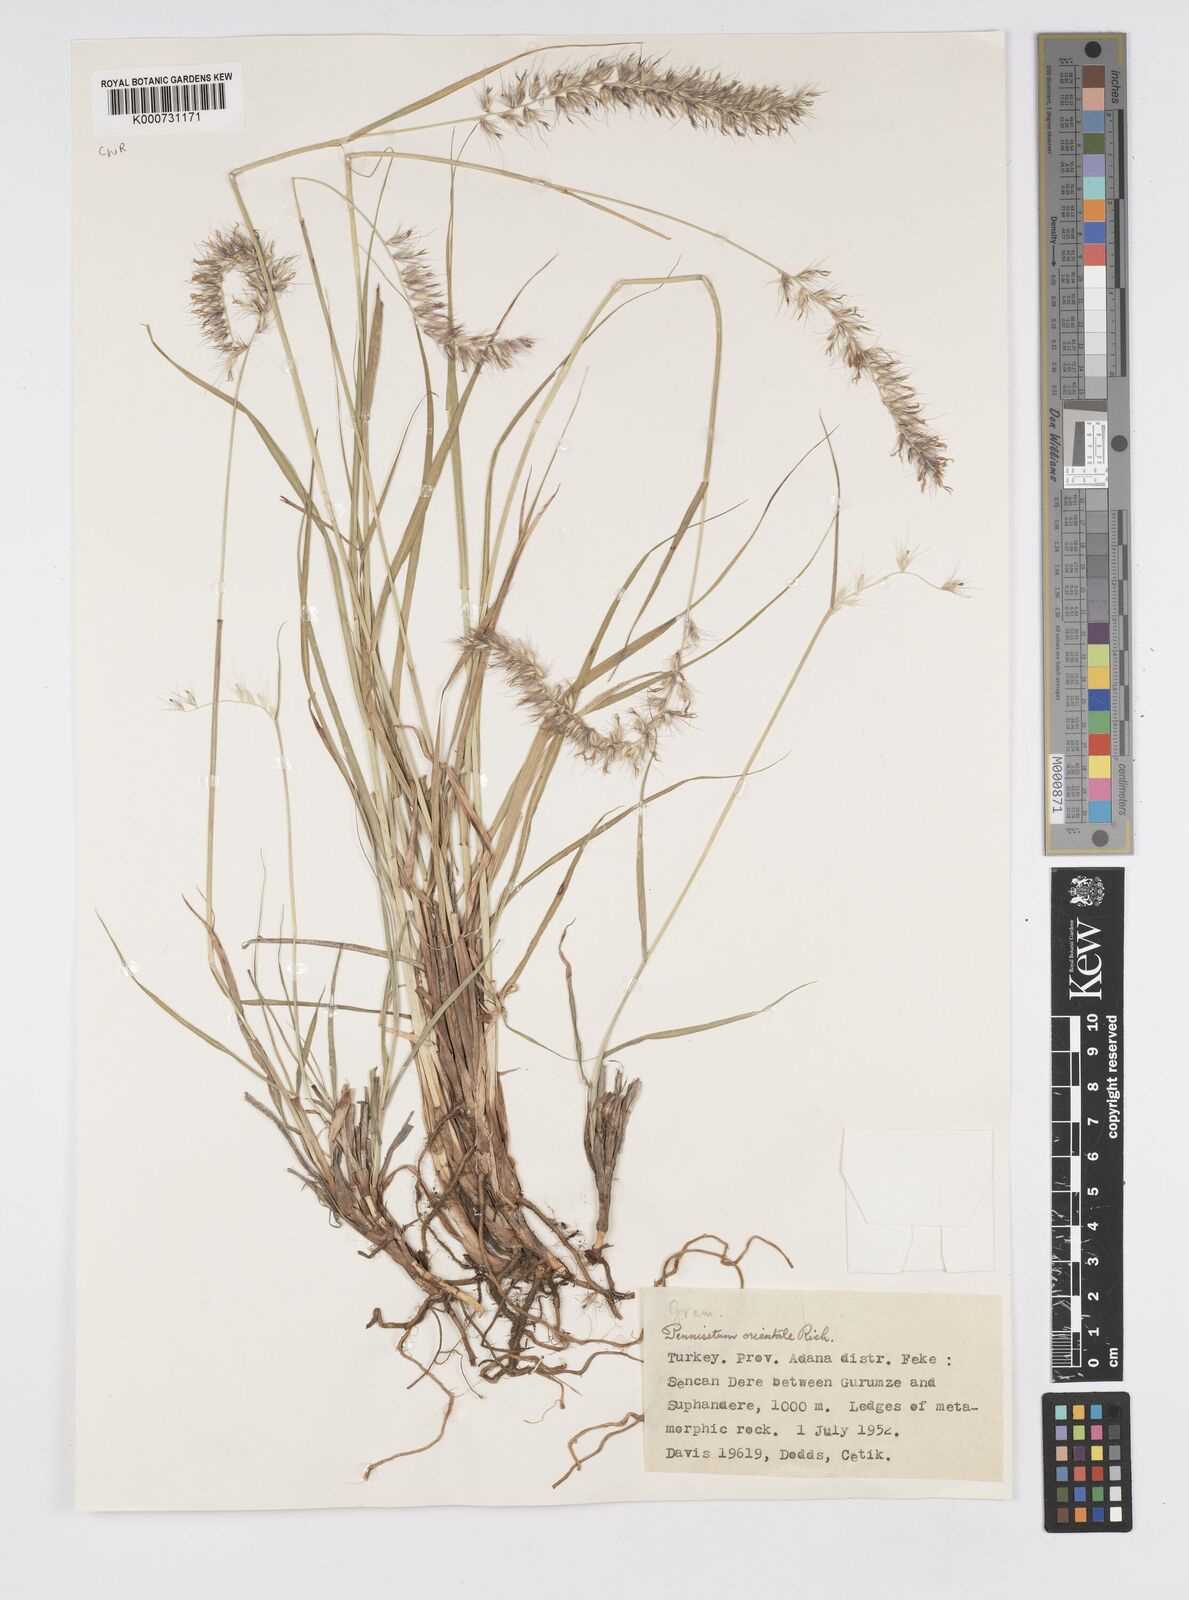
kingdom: Plantae
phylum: Tracheophyta
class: Liliopsida
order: Poales
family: Poaceae
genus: Cenchrus
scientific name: Cenchrus orientalis
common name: Oriental fountain grass
